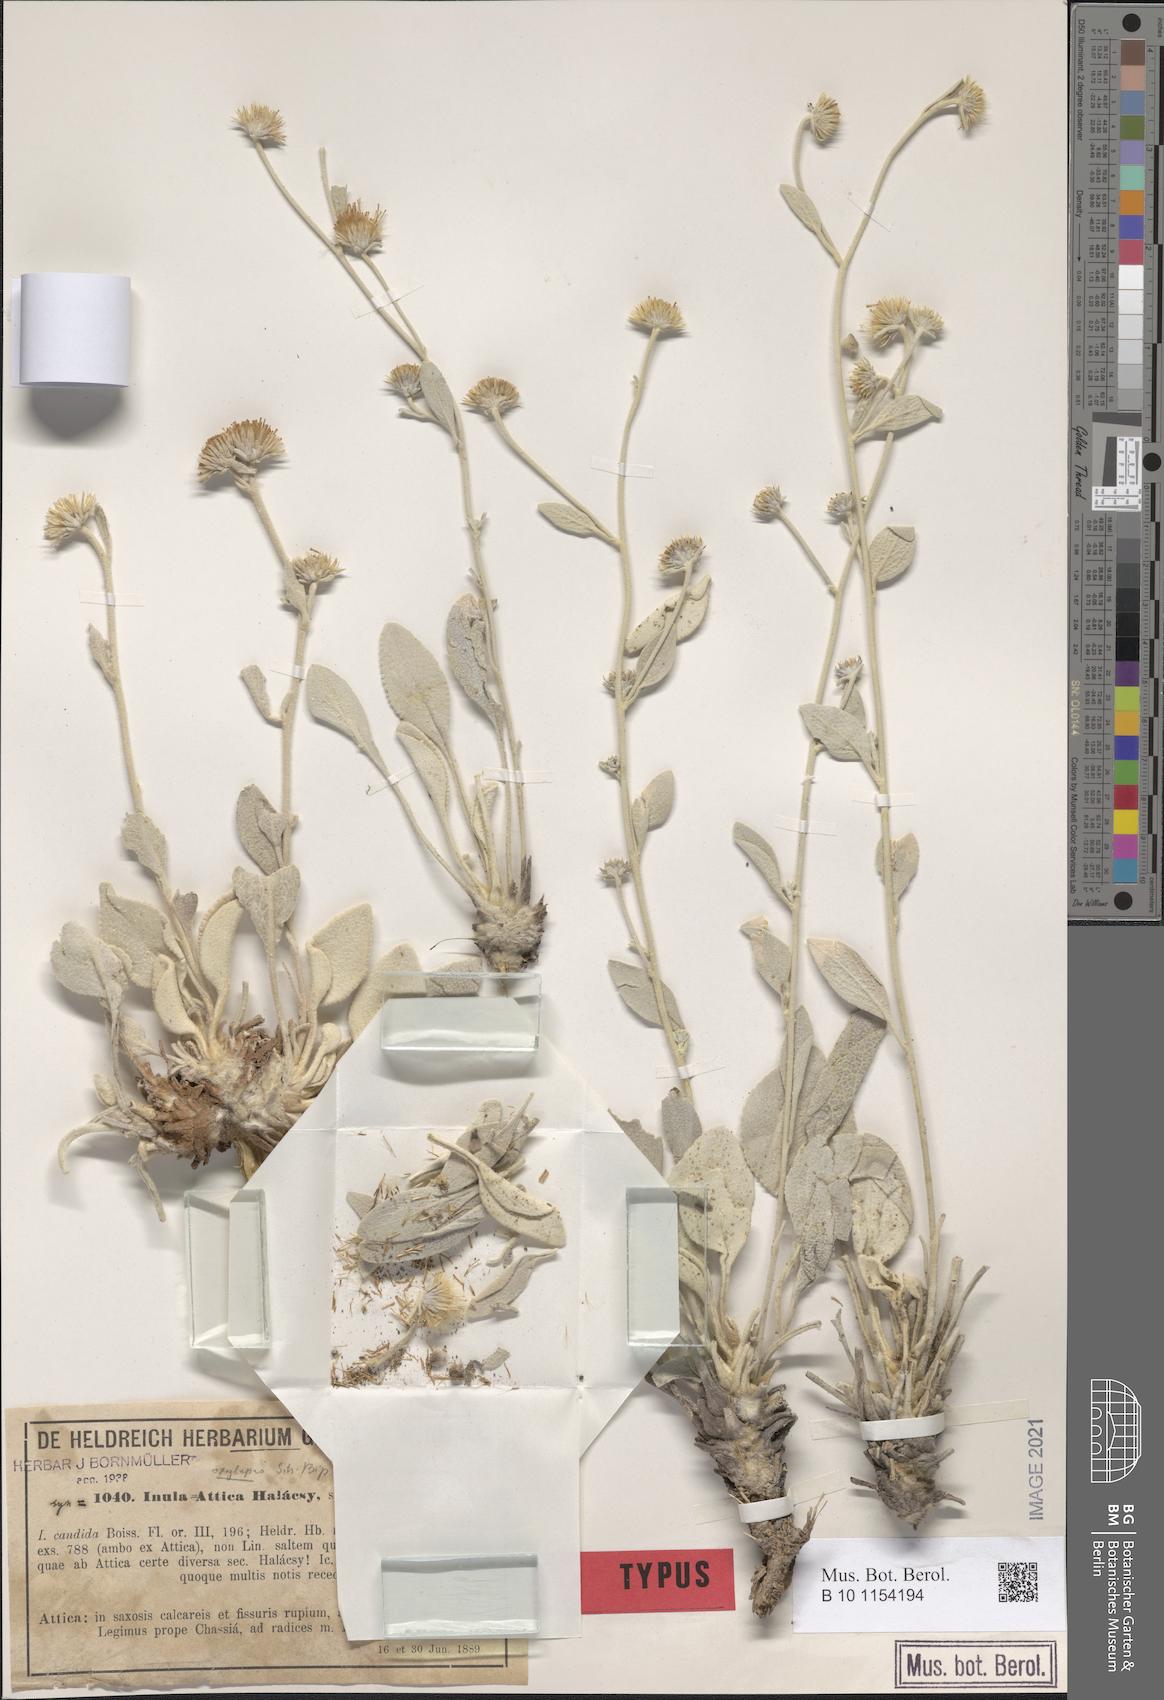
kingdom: Plantae
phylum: Tracheophyta
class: Magnoliopsida
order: Asterales
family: Asteraceae
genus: Pentanema
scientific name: Pentanema verbascifolium
